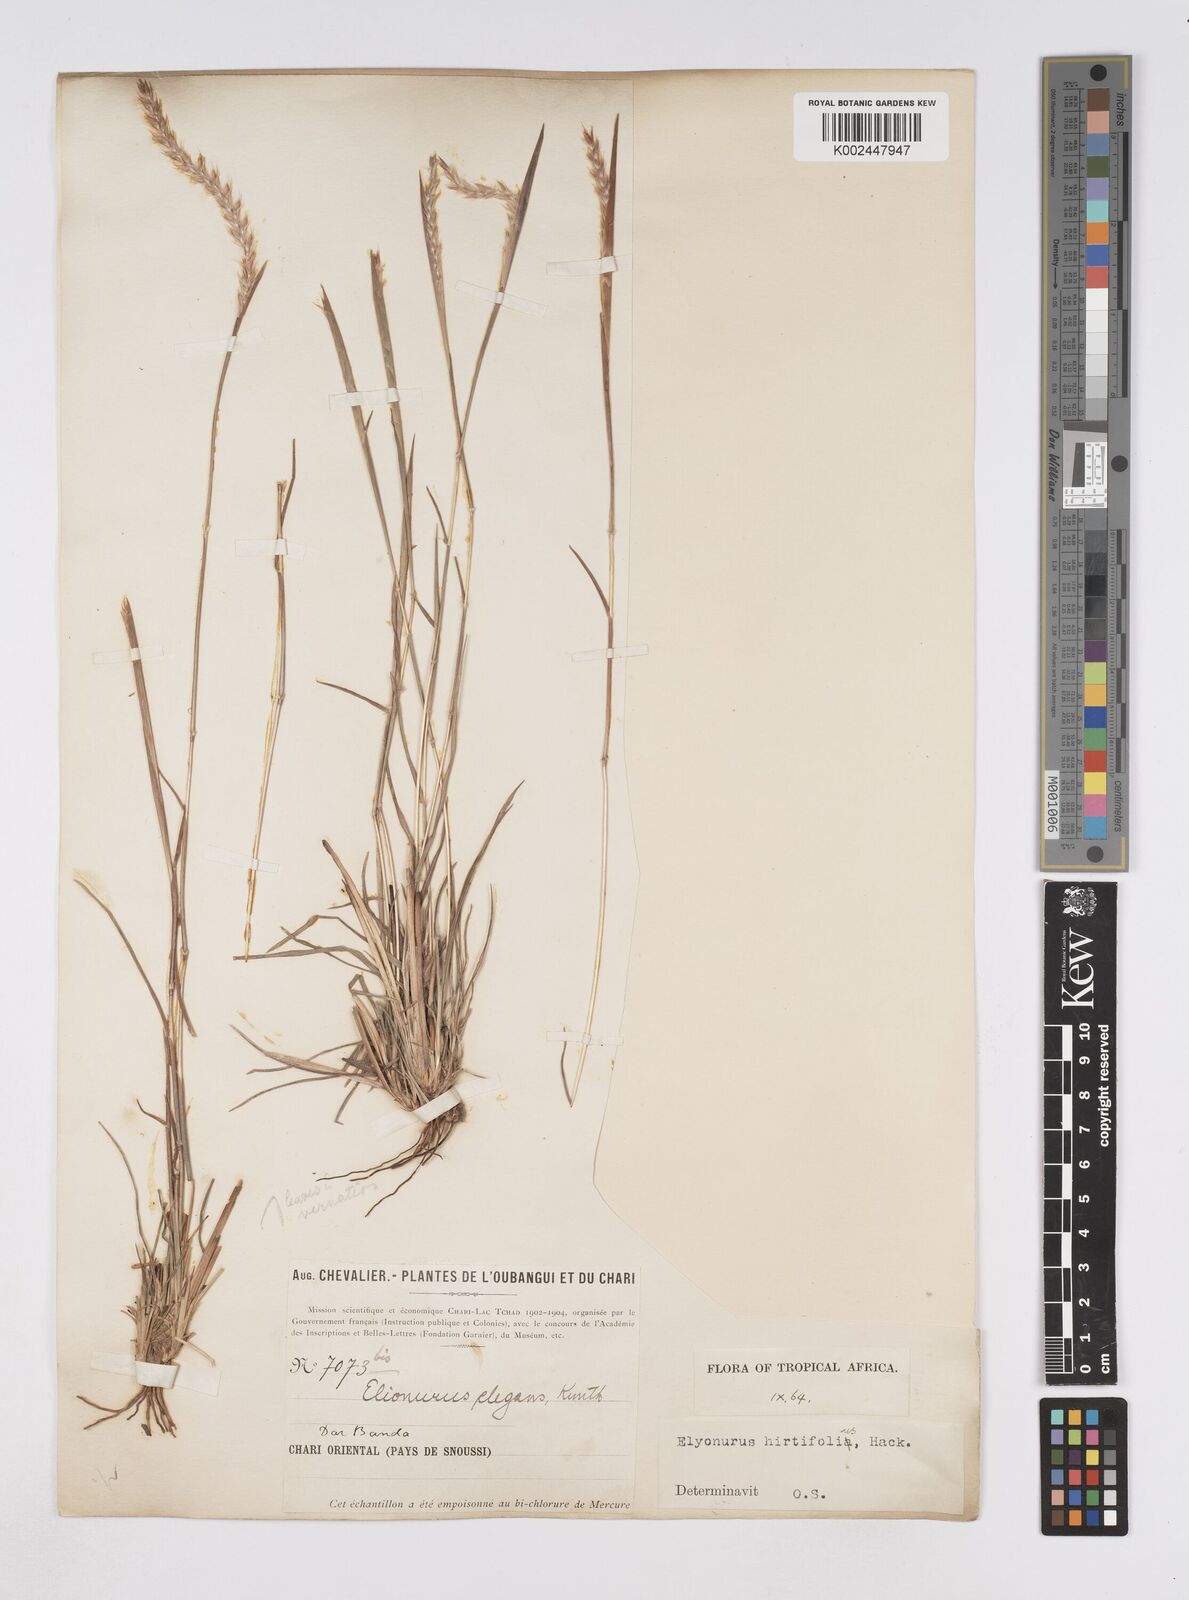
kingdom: Plantae
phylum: Tracheophyta
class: Liliopsida
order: Poales
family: Poaceae
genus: Elionurus
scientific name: Elionurus hirtifolius
